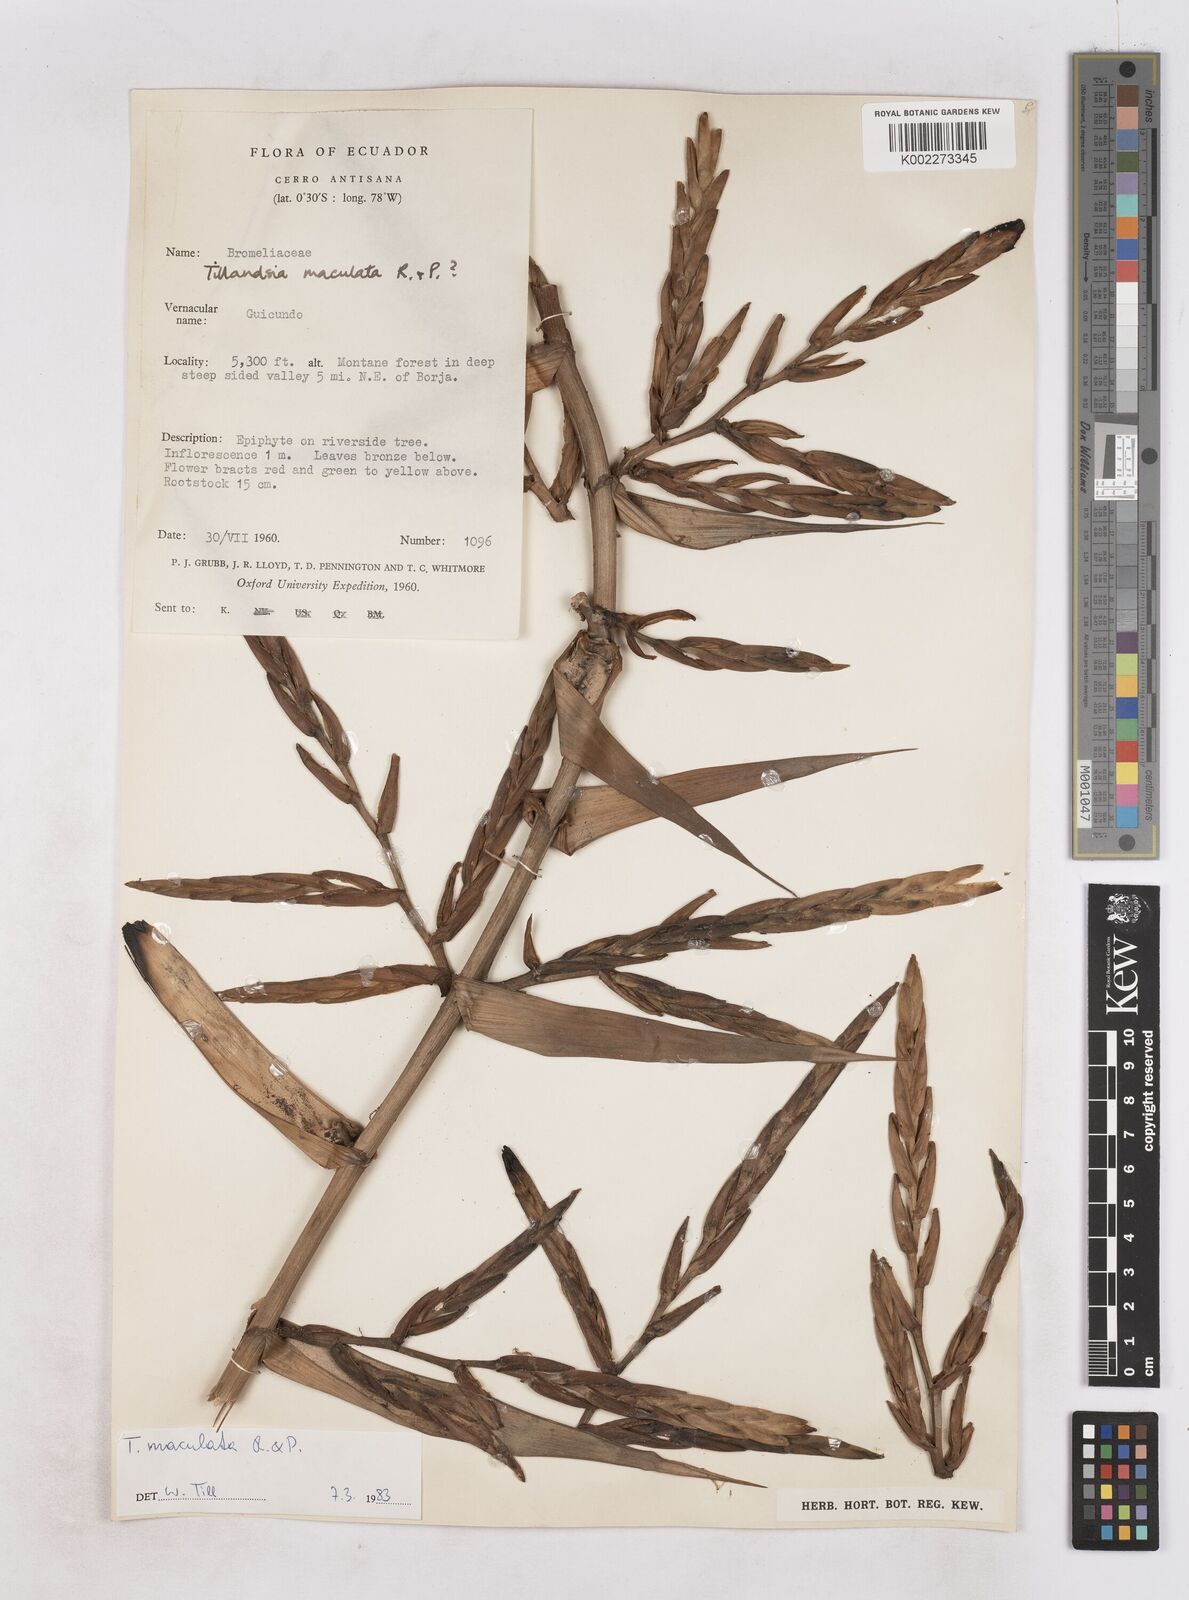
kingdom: Plantae
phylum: Tracheophyta
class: Liliopsida
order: Poales
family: Bromeliaceae
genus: Tillandsia
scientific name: Tillandsia maculata
